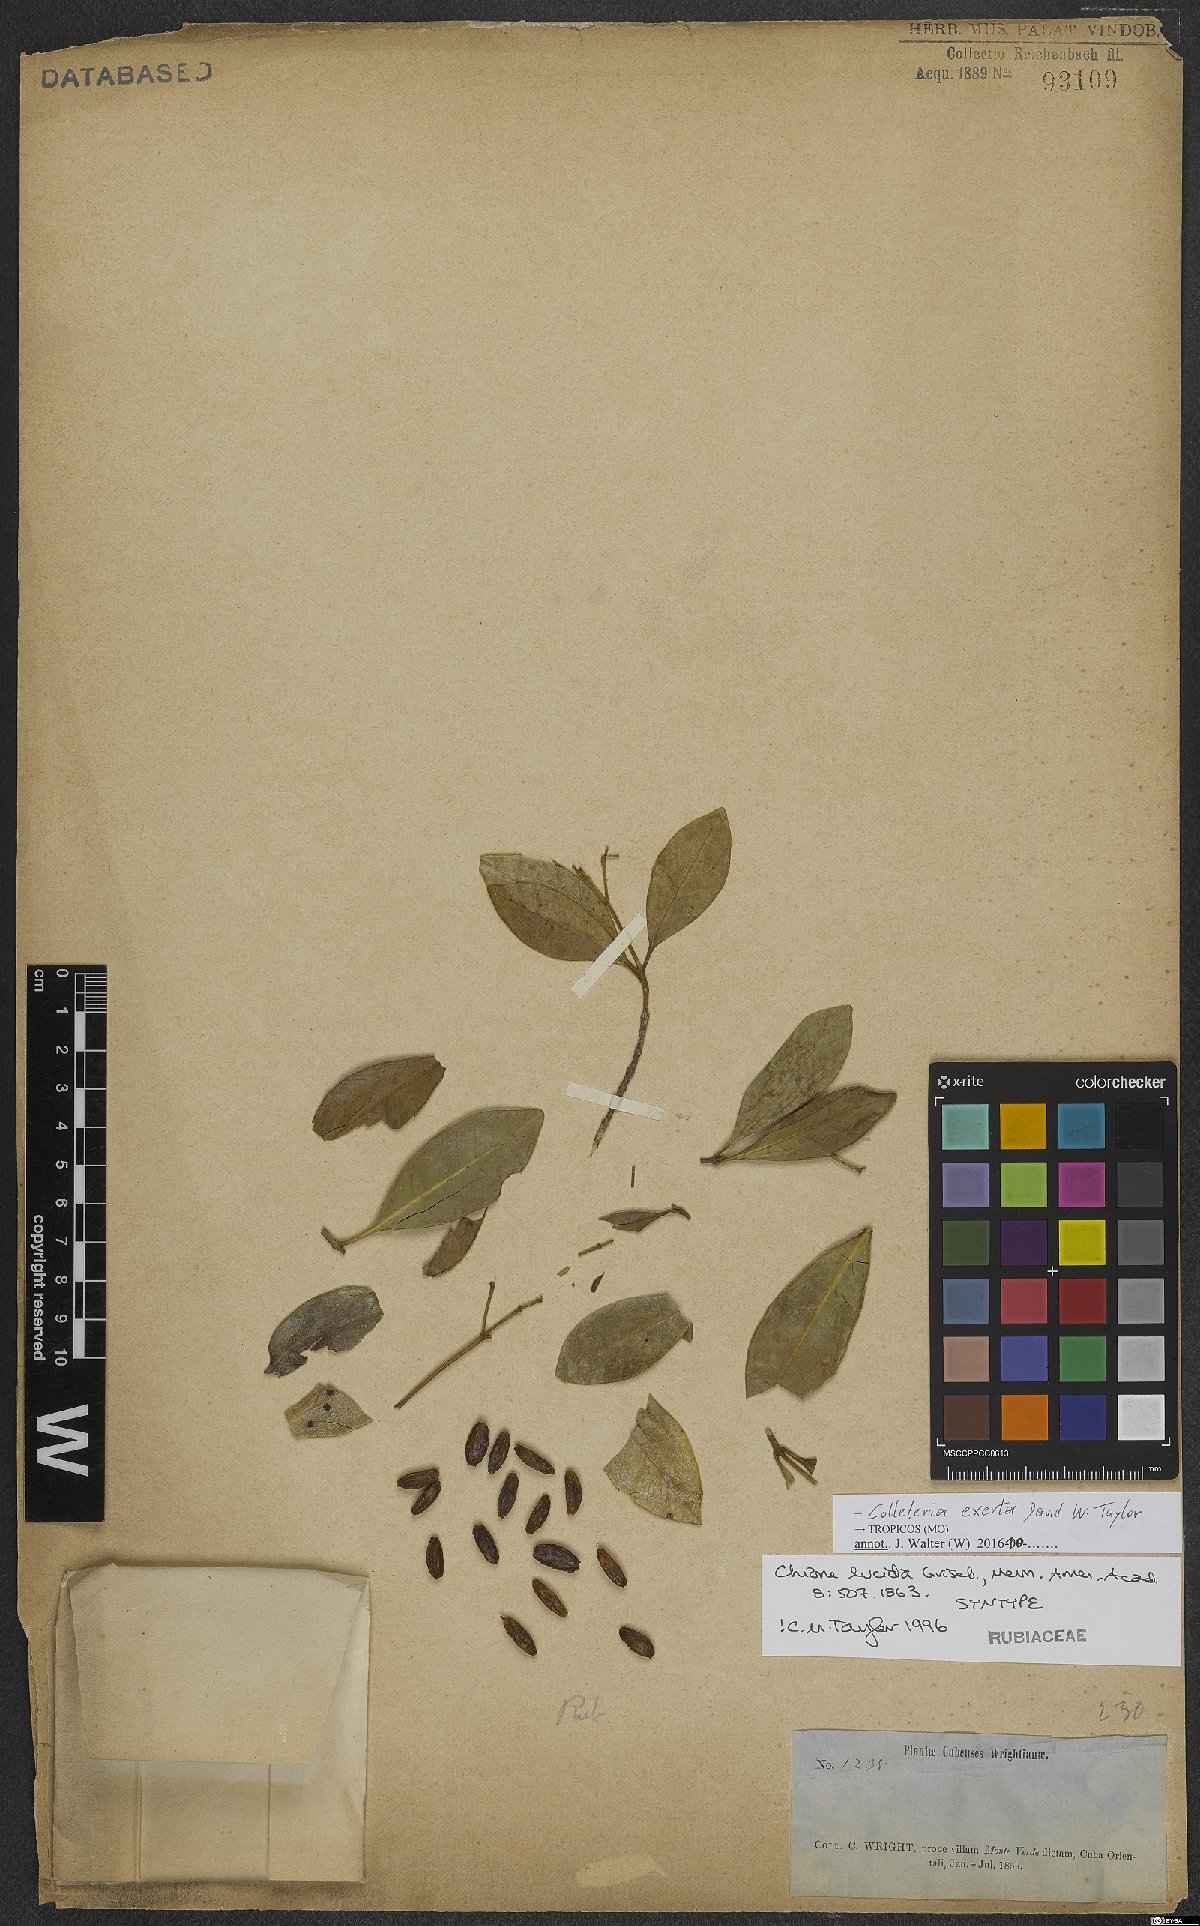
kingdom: Plantae
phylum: Tracheophyta
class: Magnoliopsida
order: Gentianales
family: Rubiaceae
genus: Wandersong
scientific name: Wandersong exserta
